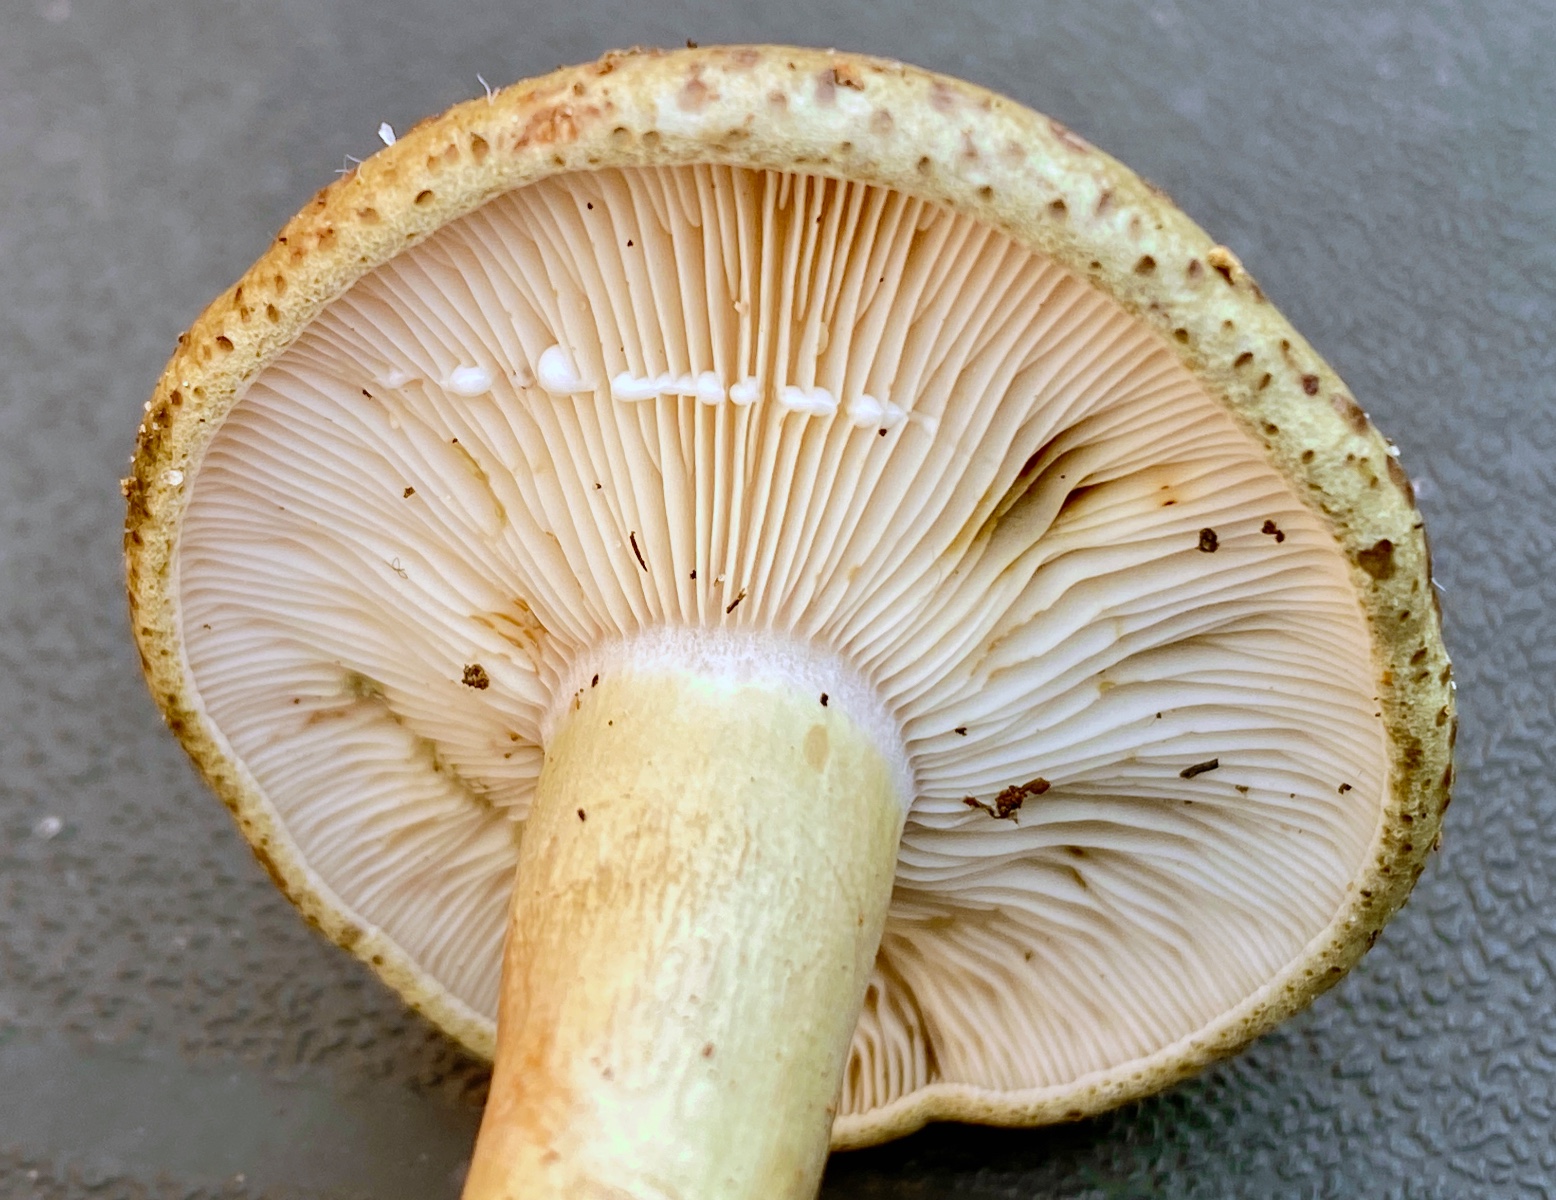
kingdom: Fungi
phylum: Basidiomycota
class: Agaricomycetes
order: Russulales
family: Russulaceae
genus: Lactarius
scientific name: Lactarius blennius
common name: dråbeplettet mælkehat
